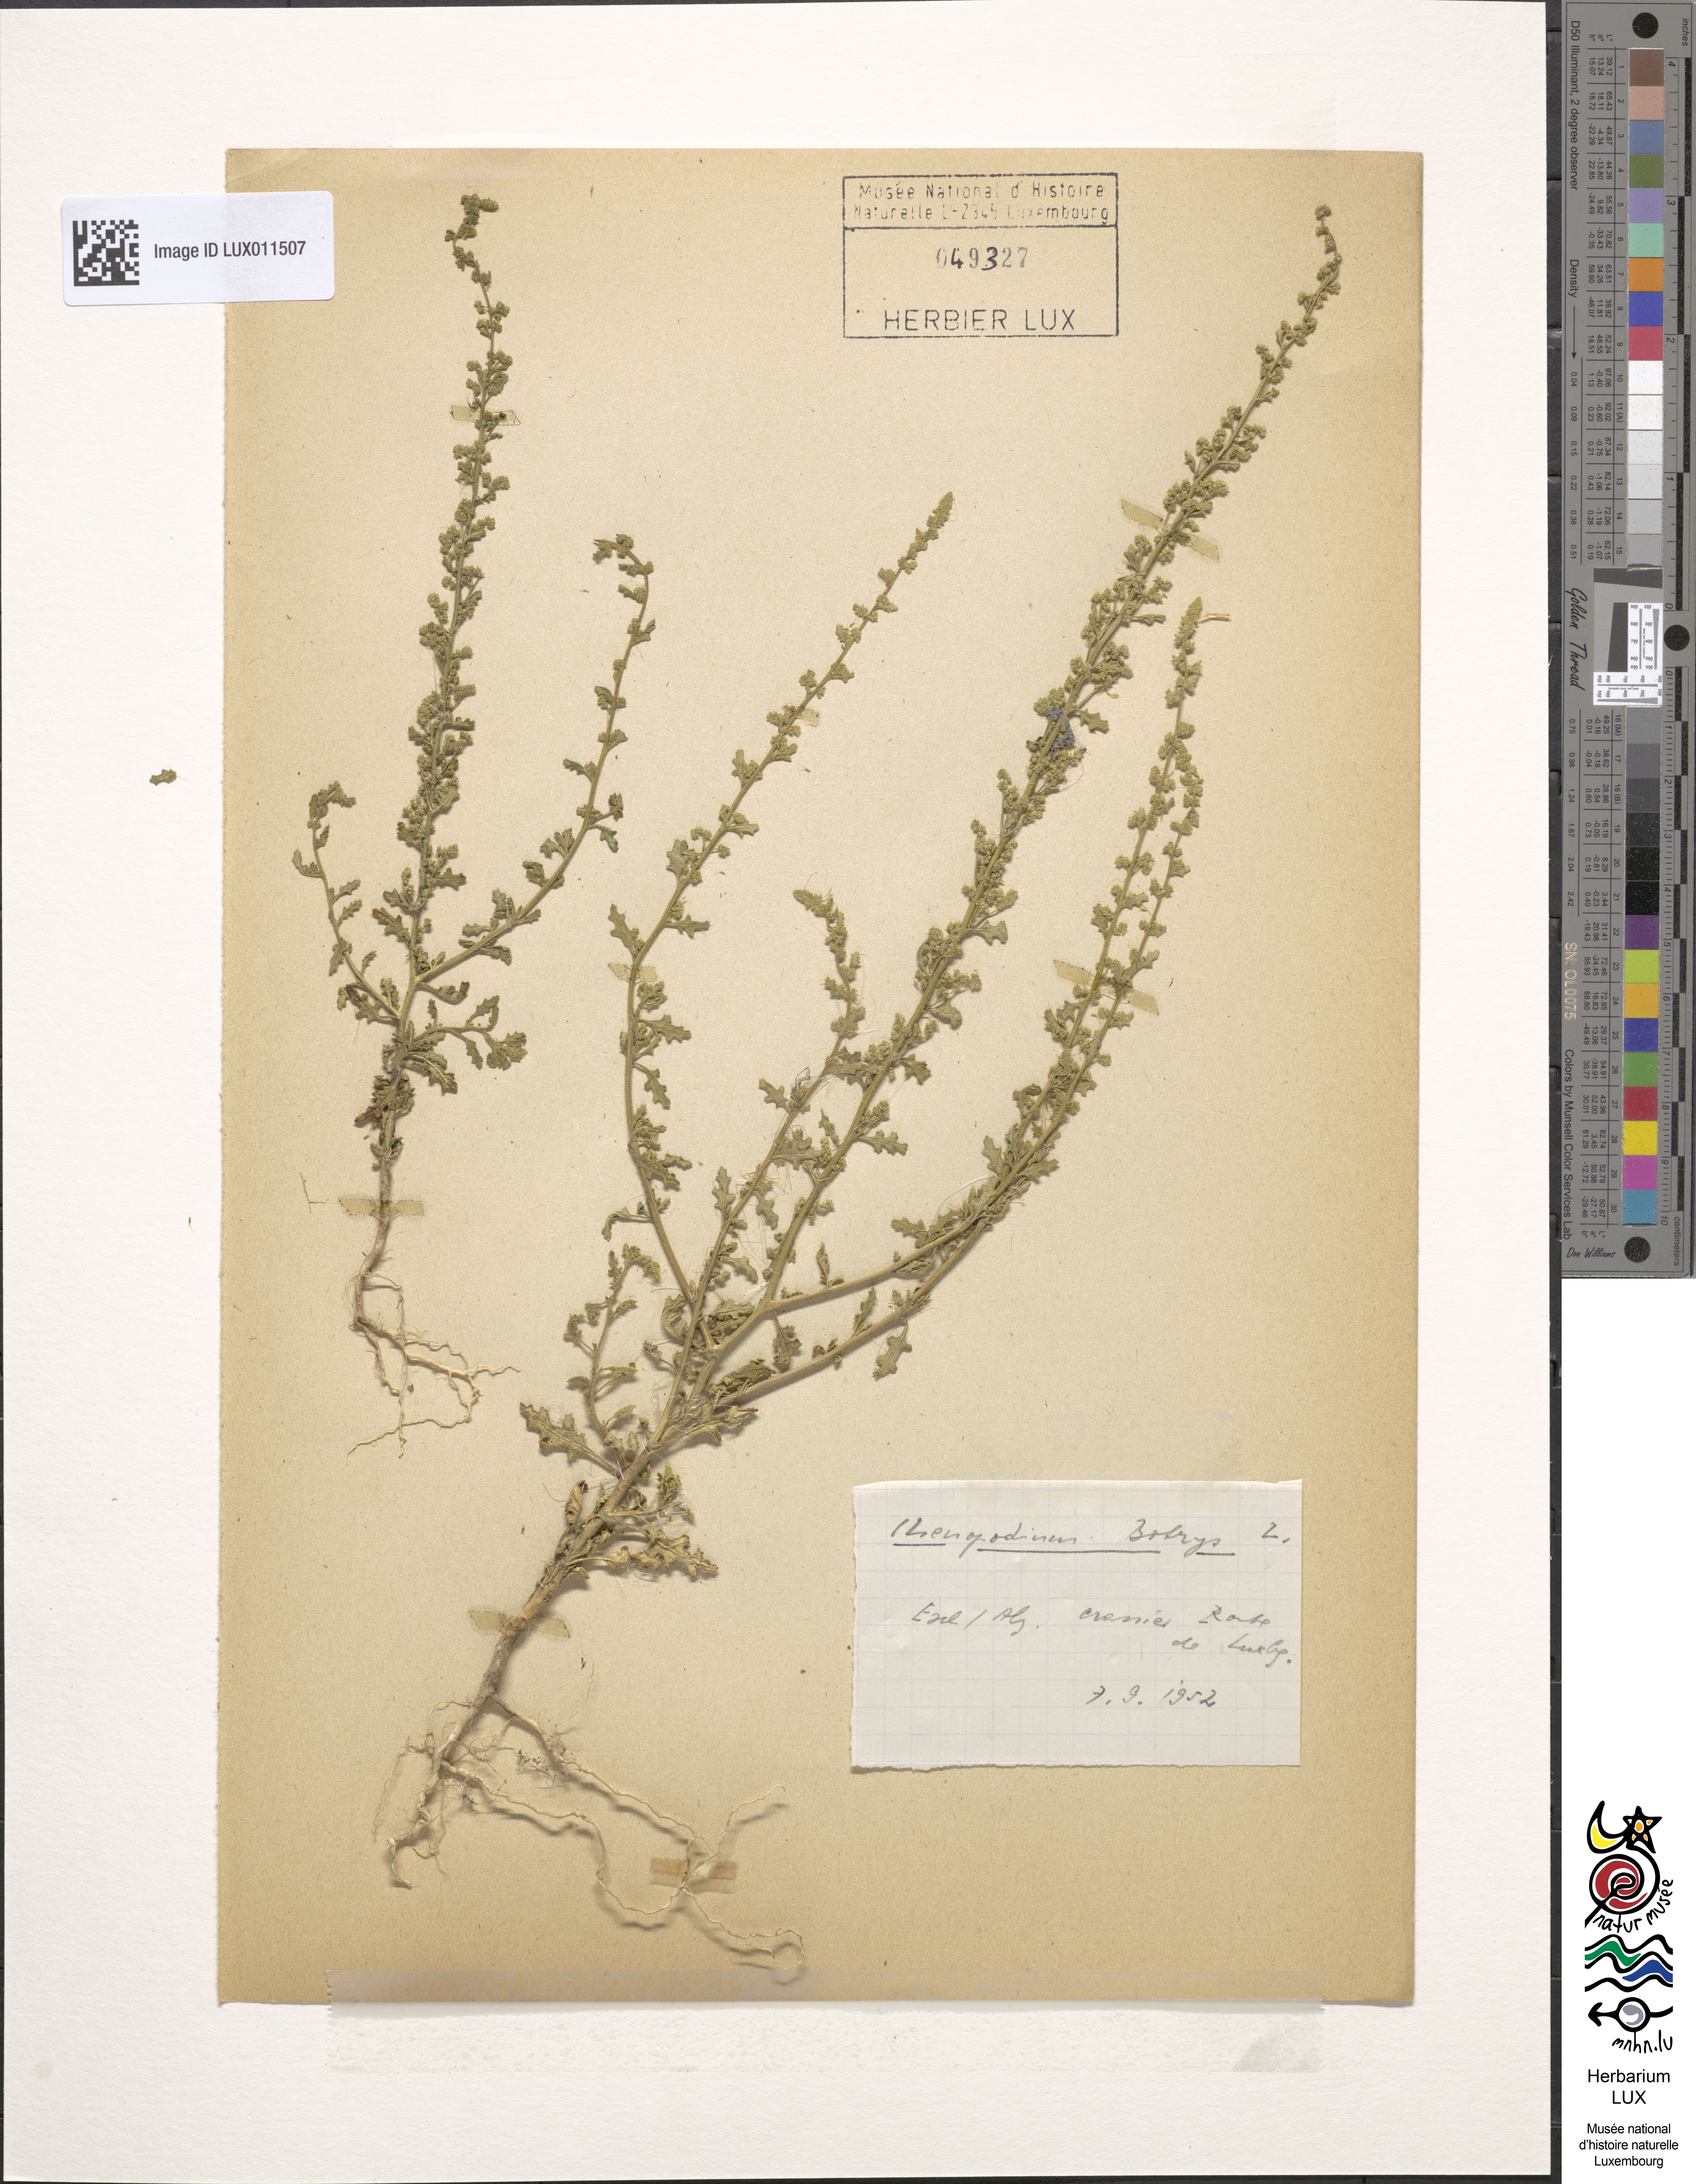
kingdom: Plantae
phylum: Tracheophyta
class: Magnoliopsida
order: Caryophyllales
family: Amaranthaceae
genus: Dysphania
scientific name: Dysphania botrys
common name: Feather-geranium
